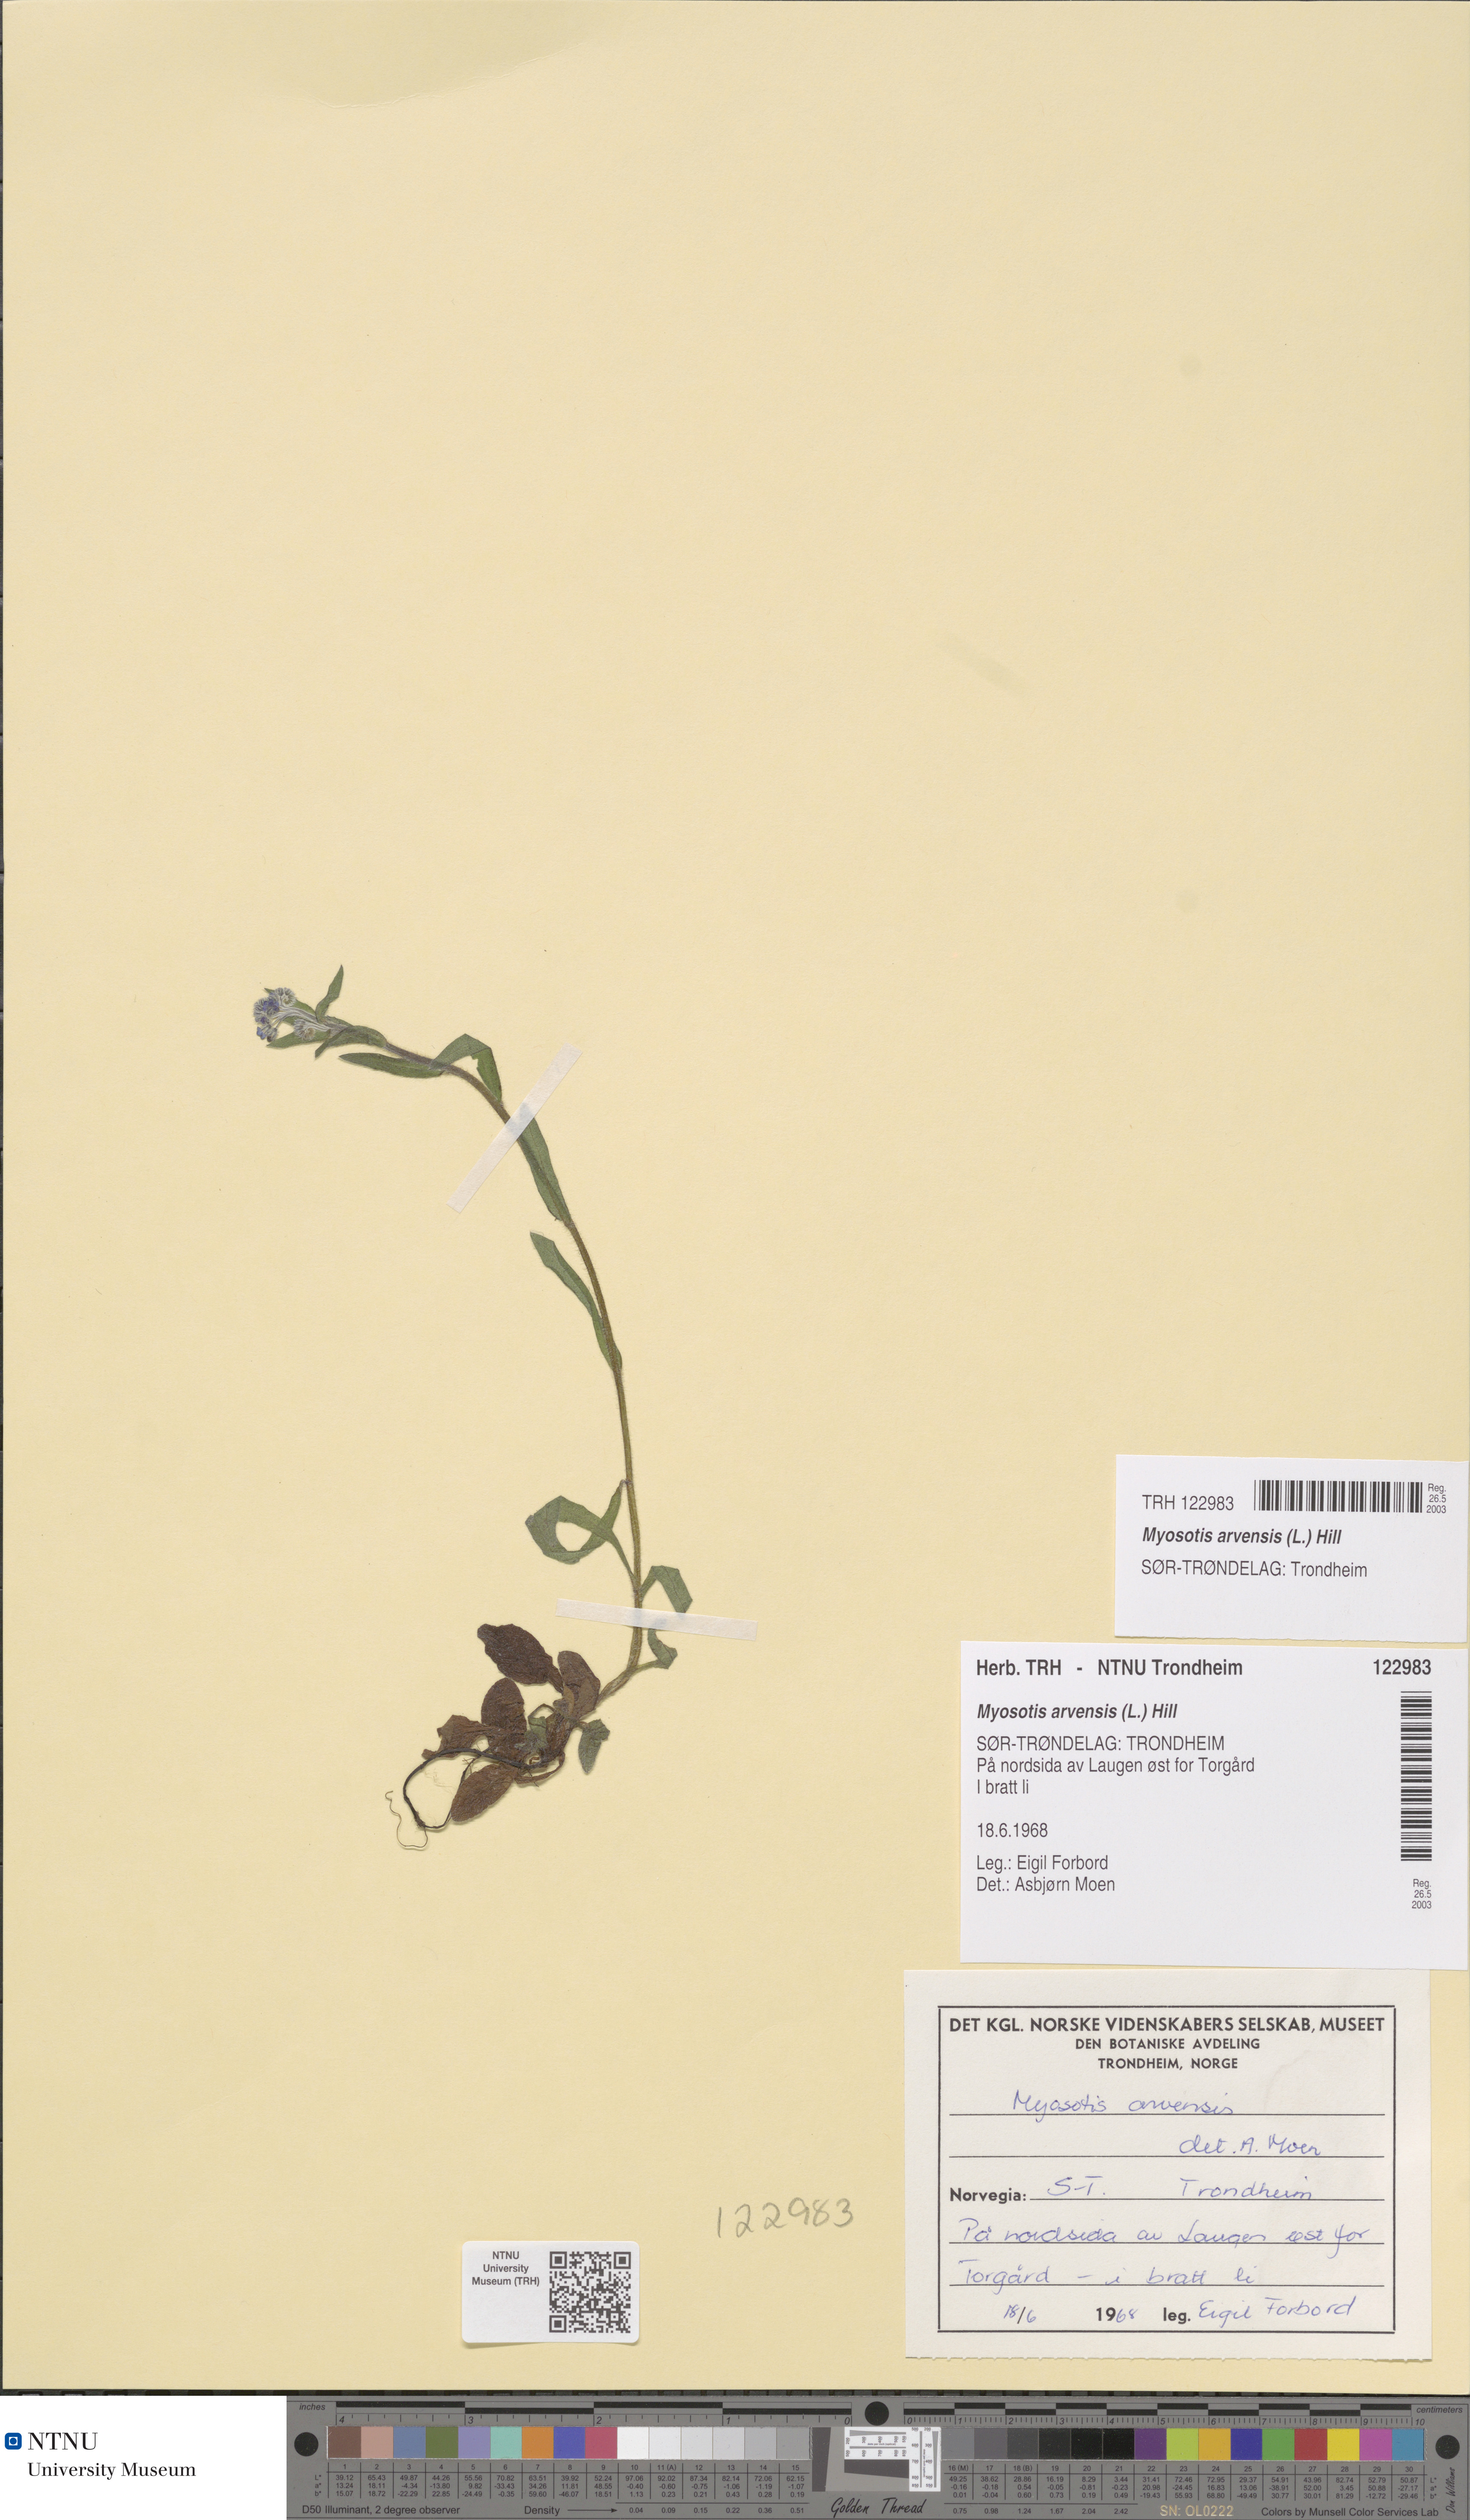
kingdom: Plantae
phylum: Tracheophyta
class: Magnoliopsida
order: Boraginales
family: Boraginaceae
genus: Myosotis
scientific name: Myosotis arvensis
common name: Field forget-me-not
